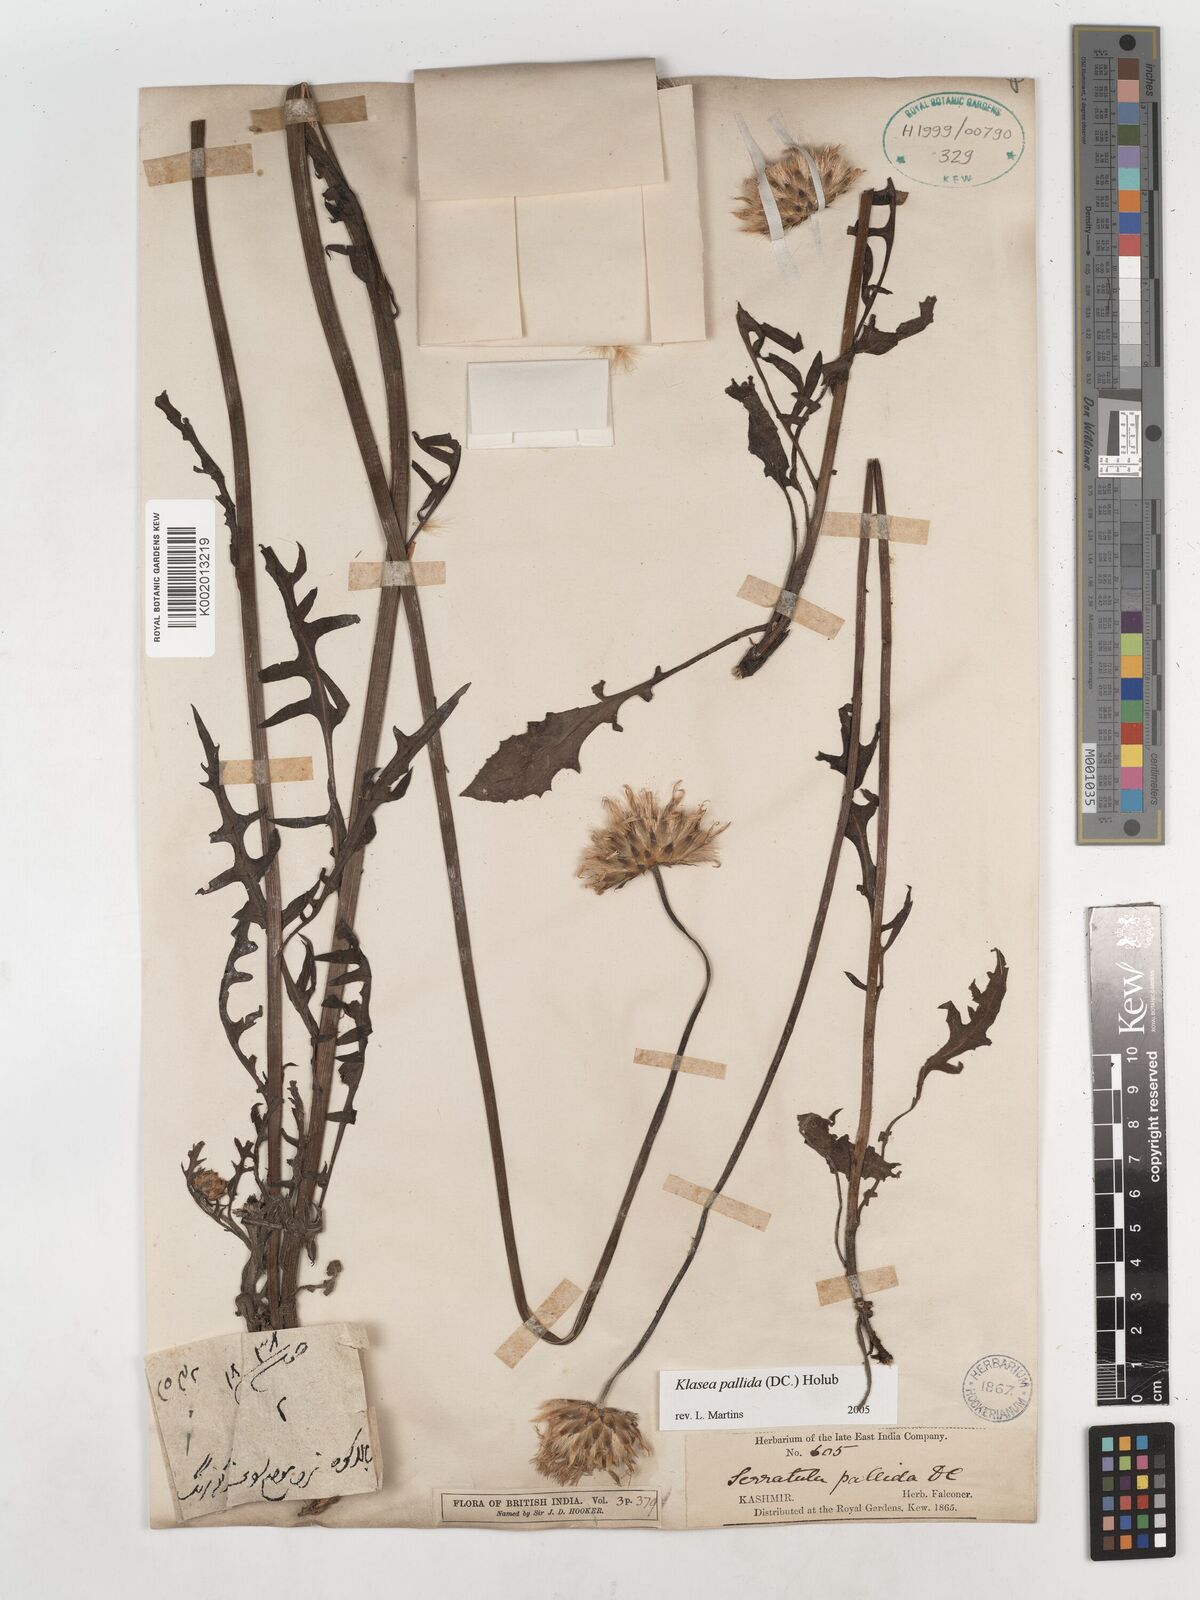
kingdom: Plantae
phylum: Tracheophyta
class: Magnoliopsida
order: Asterales
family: Asteraceae
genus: Klasea
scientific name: Klasea pallida
